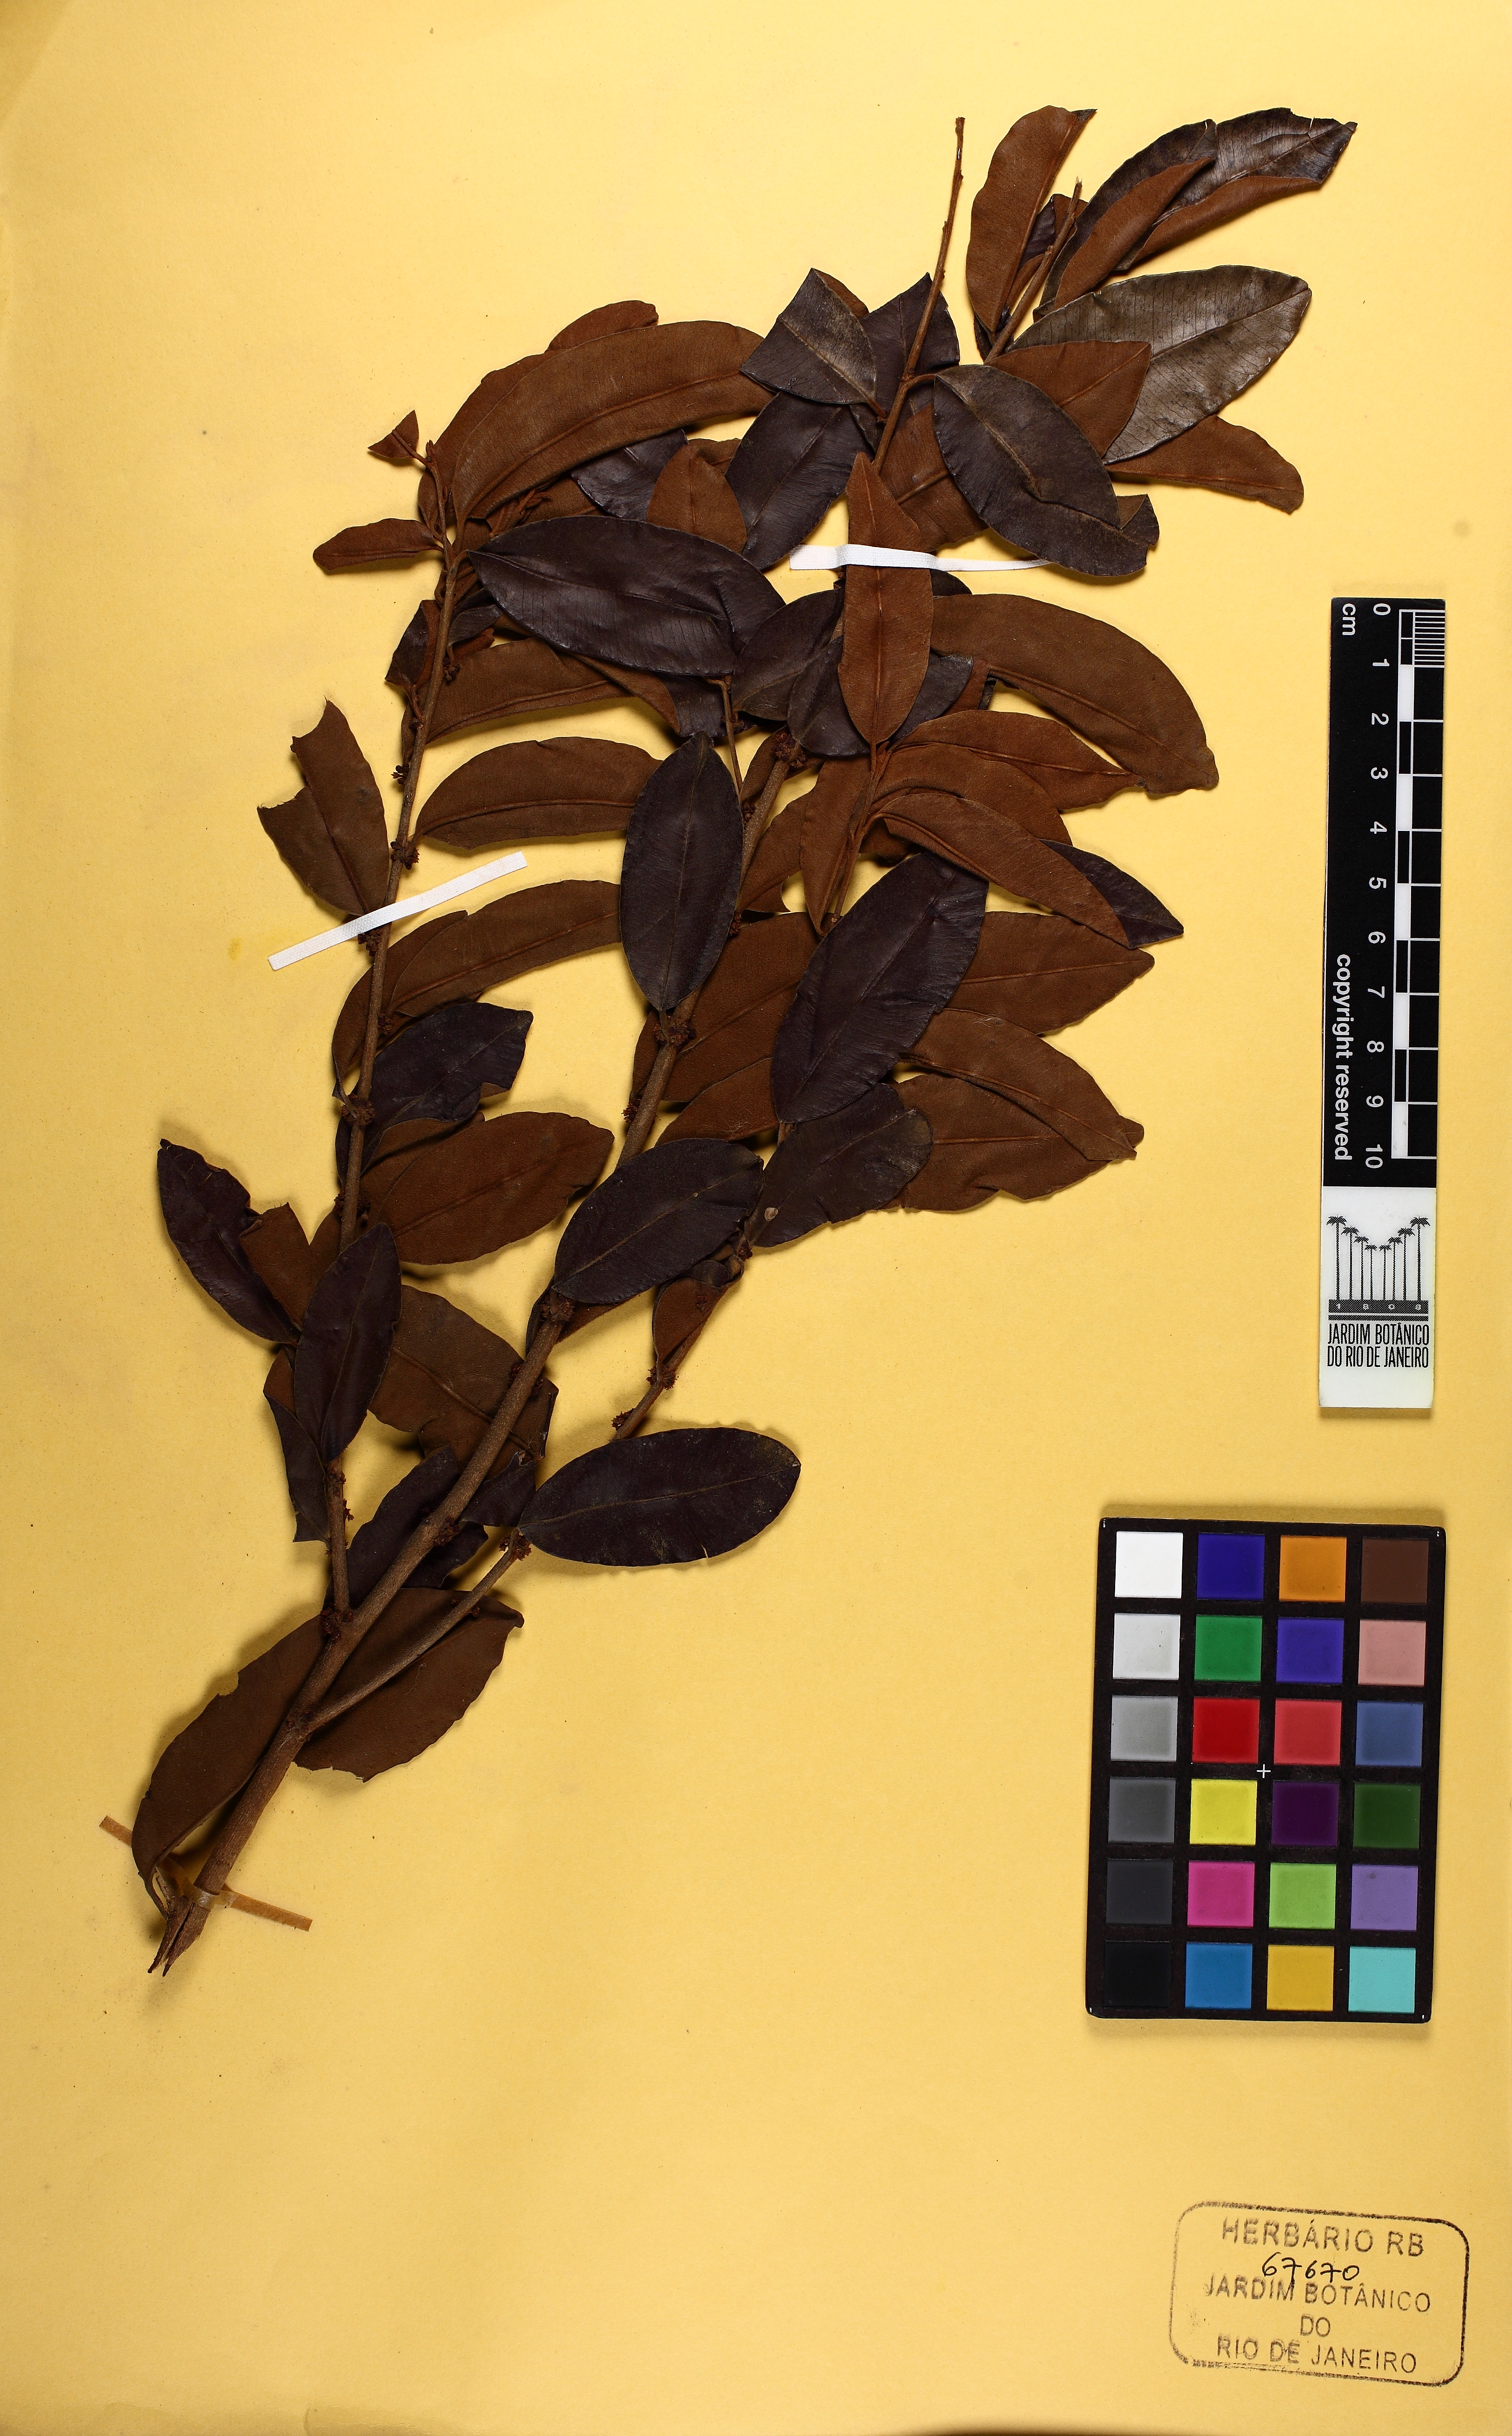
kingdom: Plantae
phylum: Tracheophyta
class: Magnoliopsida
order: Ericales
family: Sapotaceae
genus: Chrysophyllum
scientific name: Chrysophyllum marginatum
